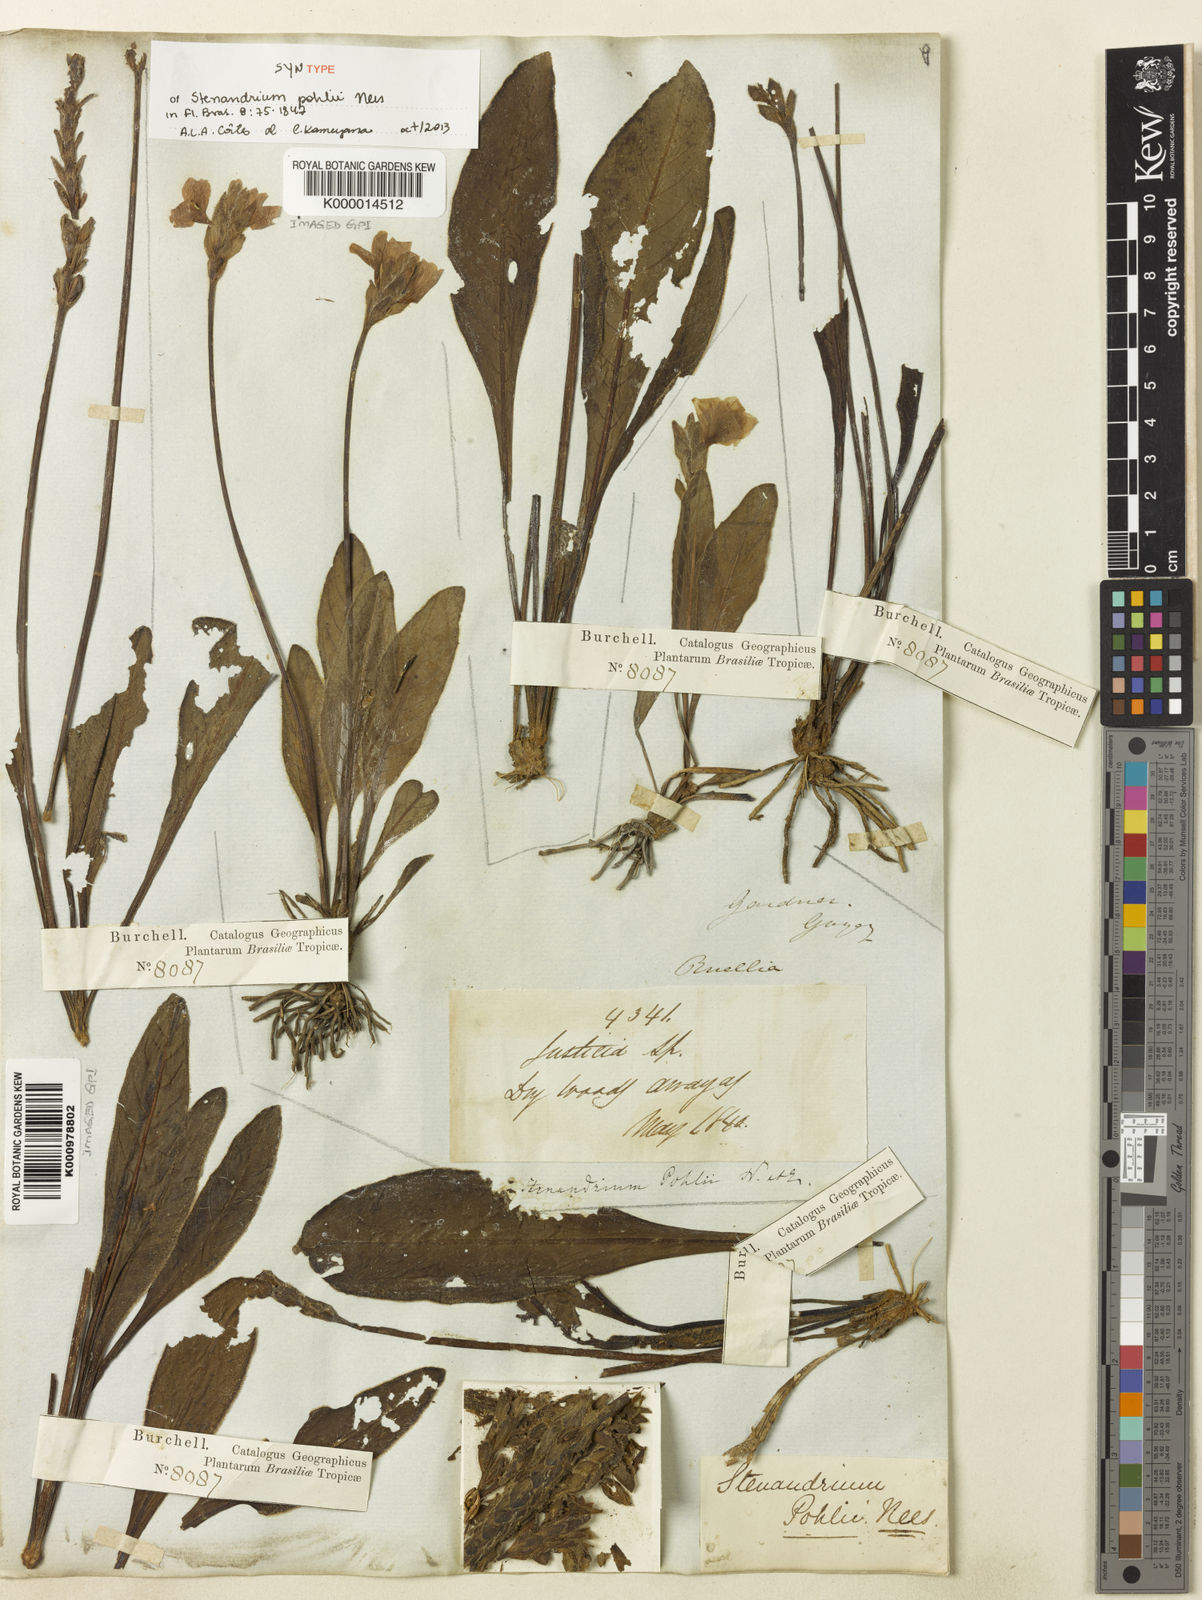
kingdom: Plantae
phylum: Tracheophyta
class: Magnoliopsida
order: Lamiales
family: Acanthaceae
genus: Stenandrium
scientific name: Stenandrium pohlii
